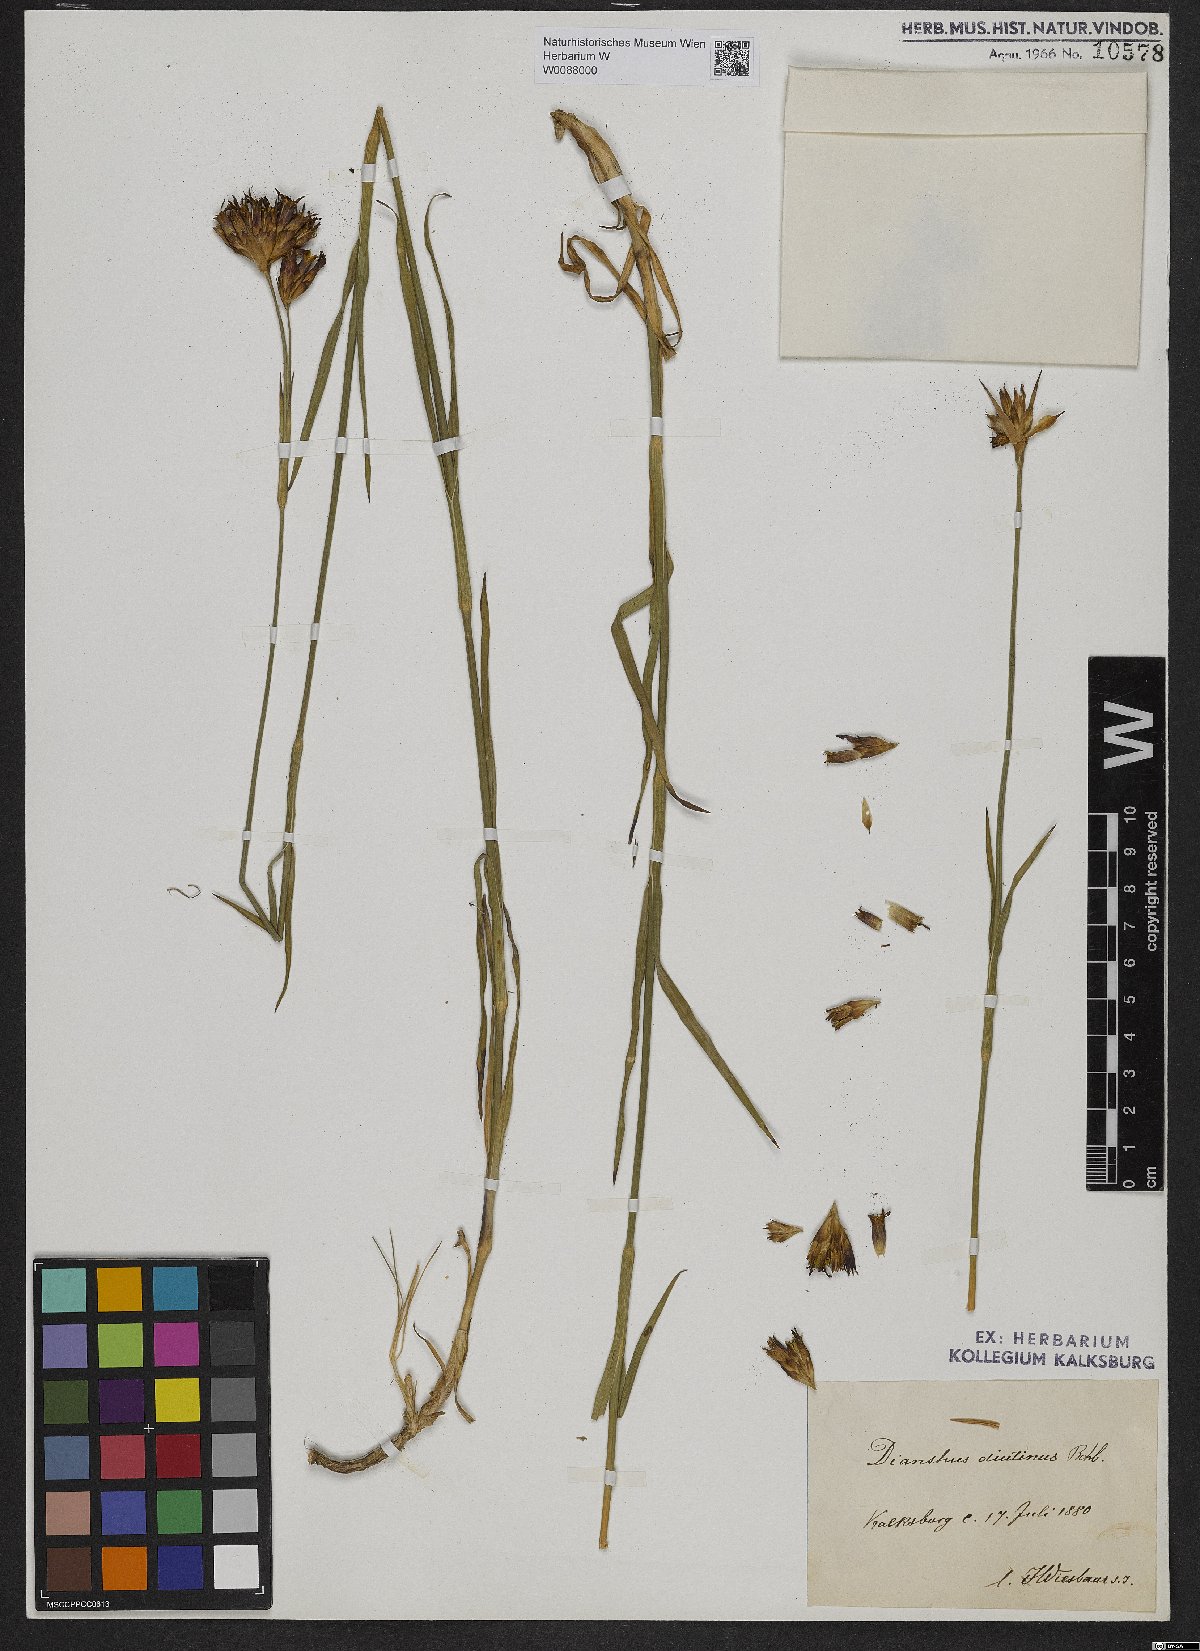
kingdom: Plantae
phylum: Tracheophyta
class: Magnoliopsida
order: Caryophyllales
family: Caryophyllaceae
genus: Dianthus
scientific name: Dianthus pontederae
